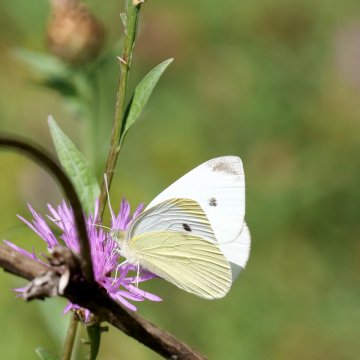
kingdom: Animalia
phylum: Arthropoda
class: Insecta
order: Lepidoptera
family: Pieridae
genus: Pieris
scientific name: Pieris rapae
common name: Cabbage White
